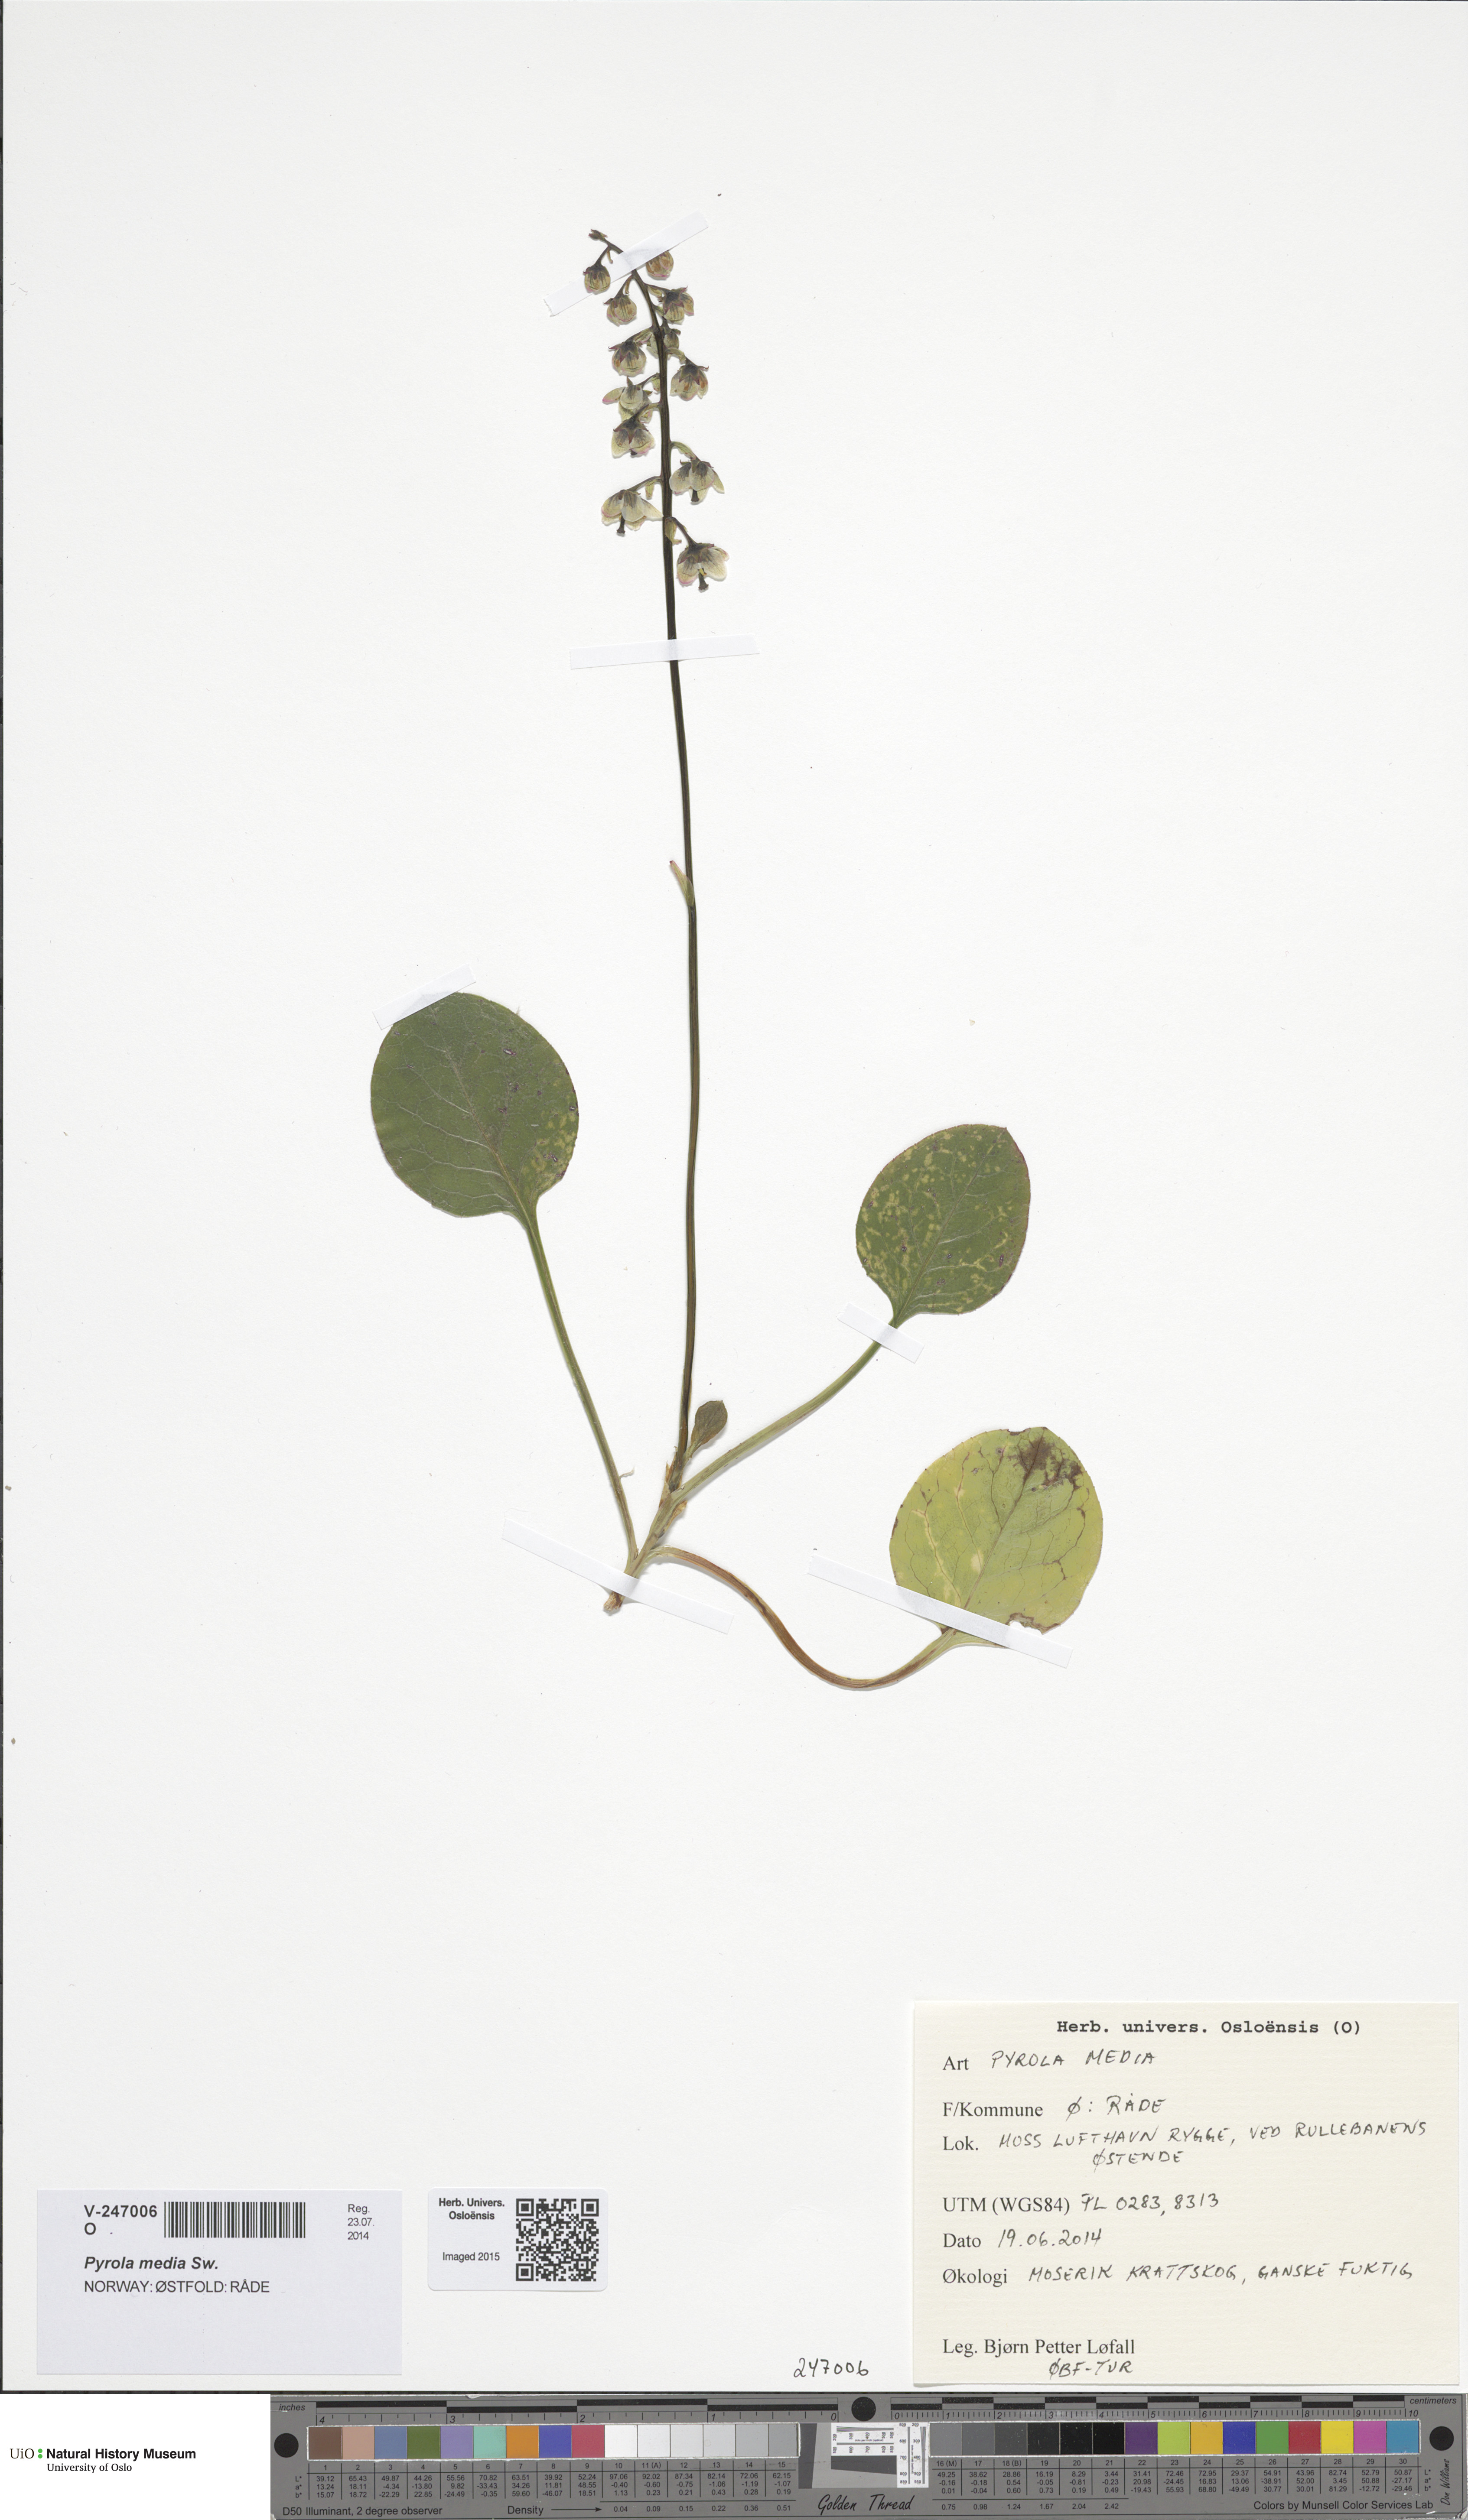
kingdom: Plantae
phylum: Tracheophyta
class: Magnoliopsida
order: Ericales
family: Ericaceae
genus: Pyrola
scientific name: Pyrola media
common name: Intermediate wintergreen
